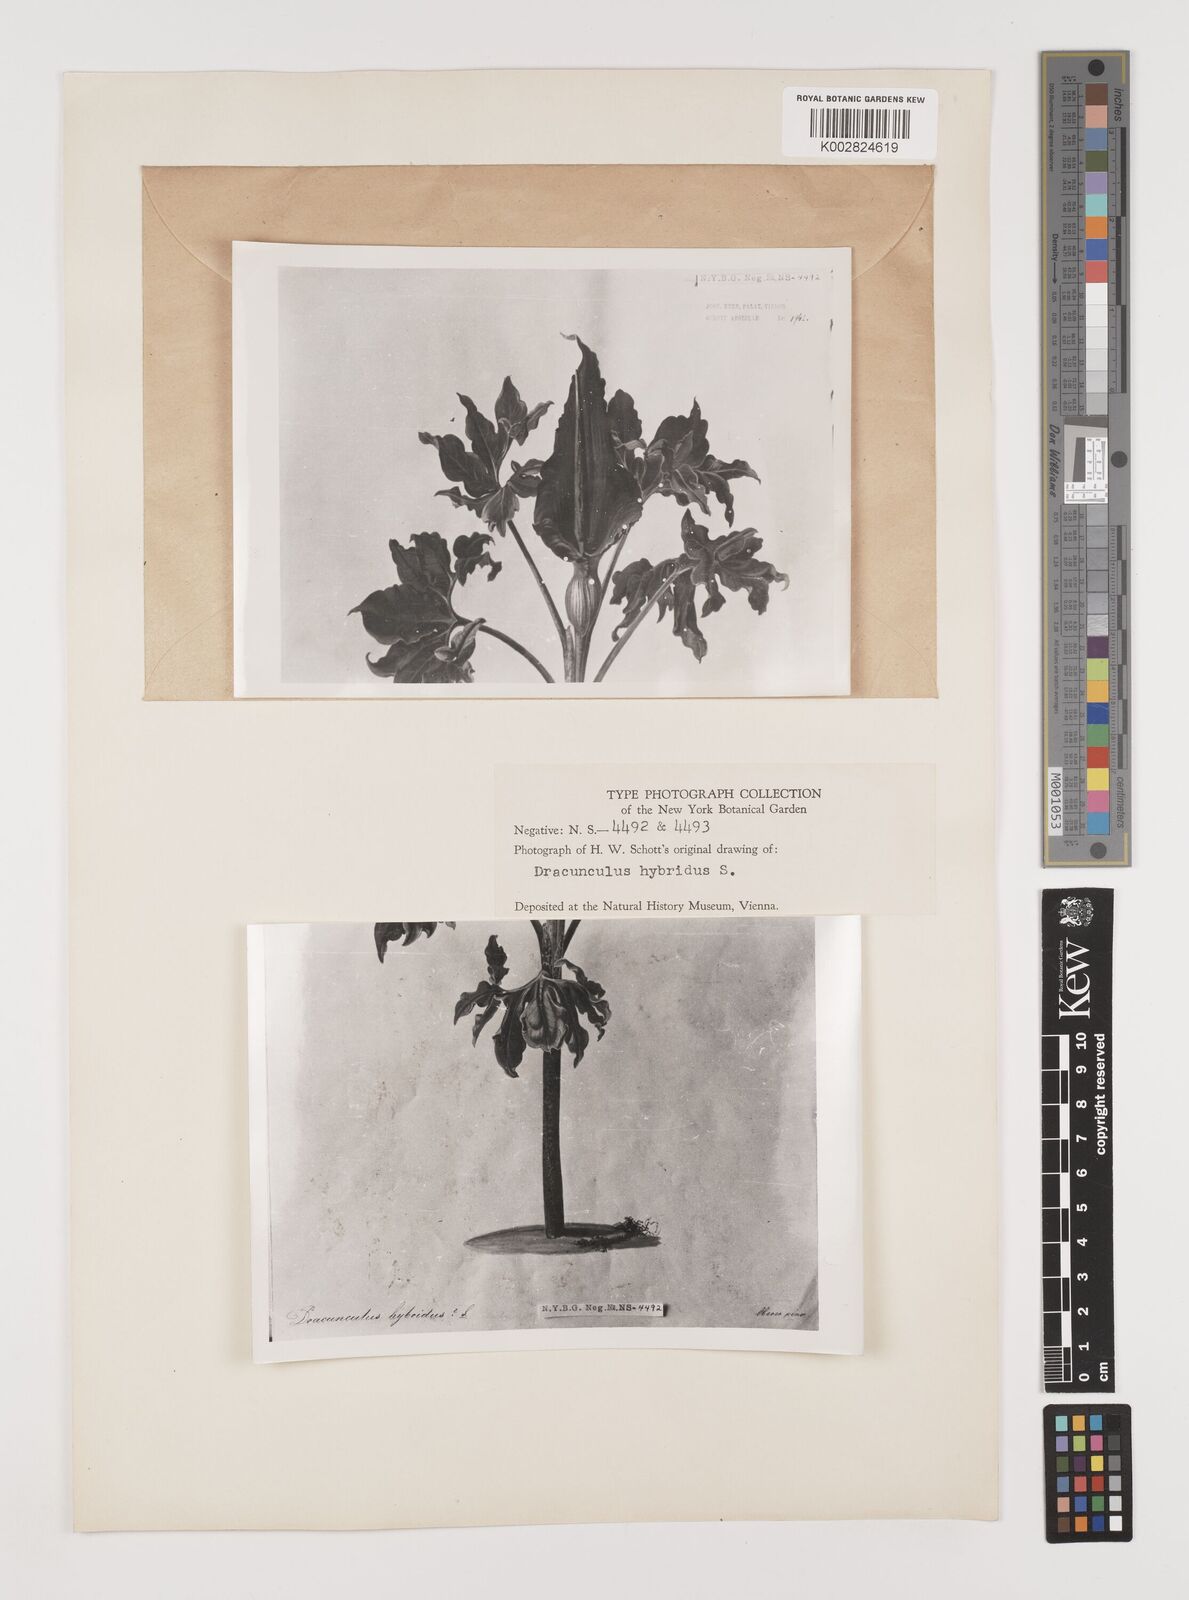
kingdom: Plantae
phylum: Tracheophyta
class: Liliopsida
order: Alismatales
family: Araceae
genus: Dracunculus
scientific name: Dracunculus vulgaris
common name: Dragon arum
